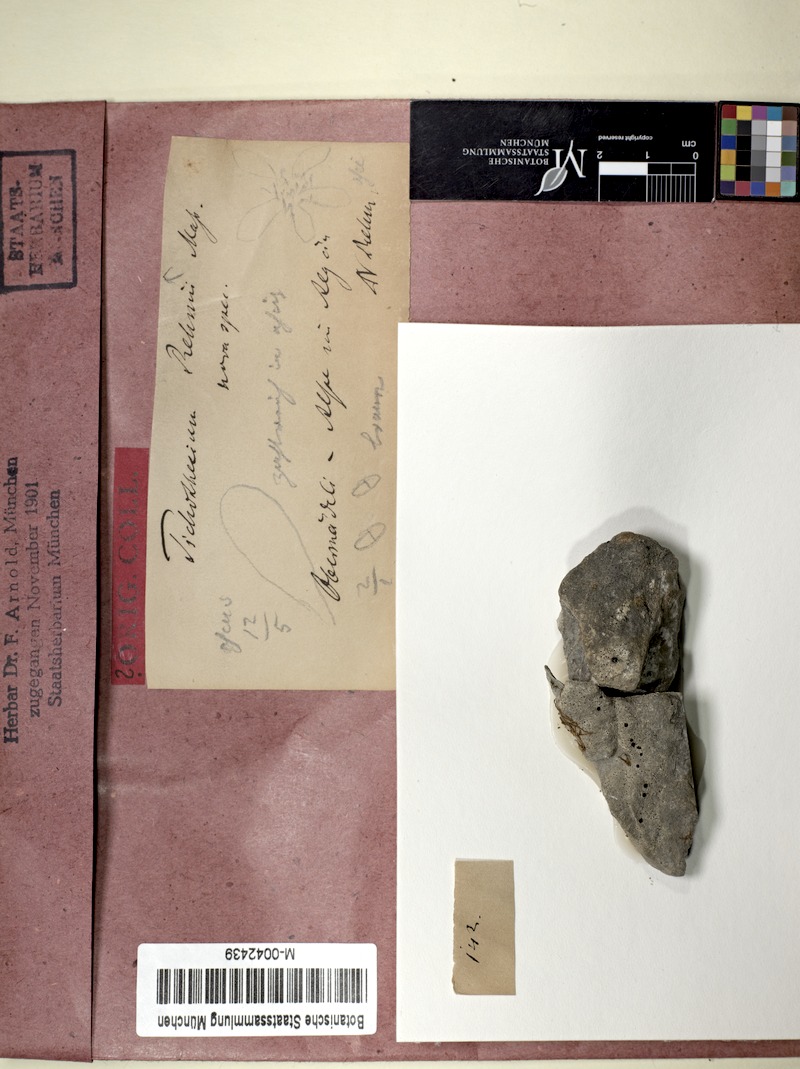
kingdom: Fungi
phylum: Ascomycota
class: Eurotiomycetes
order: Verrucariales
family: Verrucariaceae
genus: Muellerella
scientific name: Muellerella pygmaea
